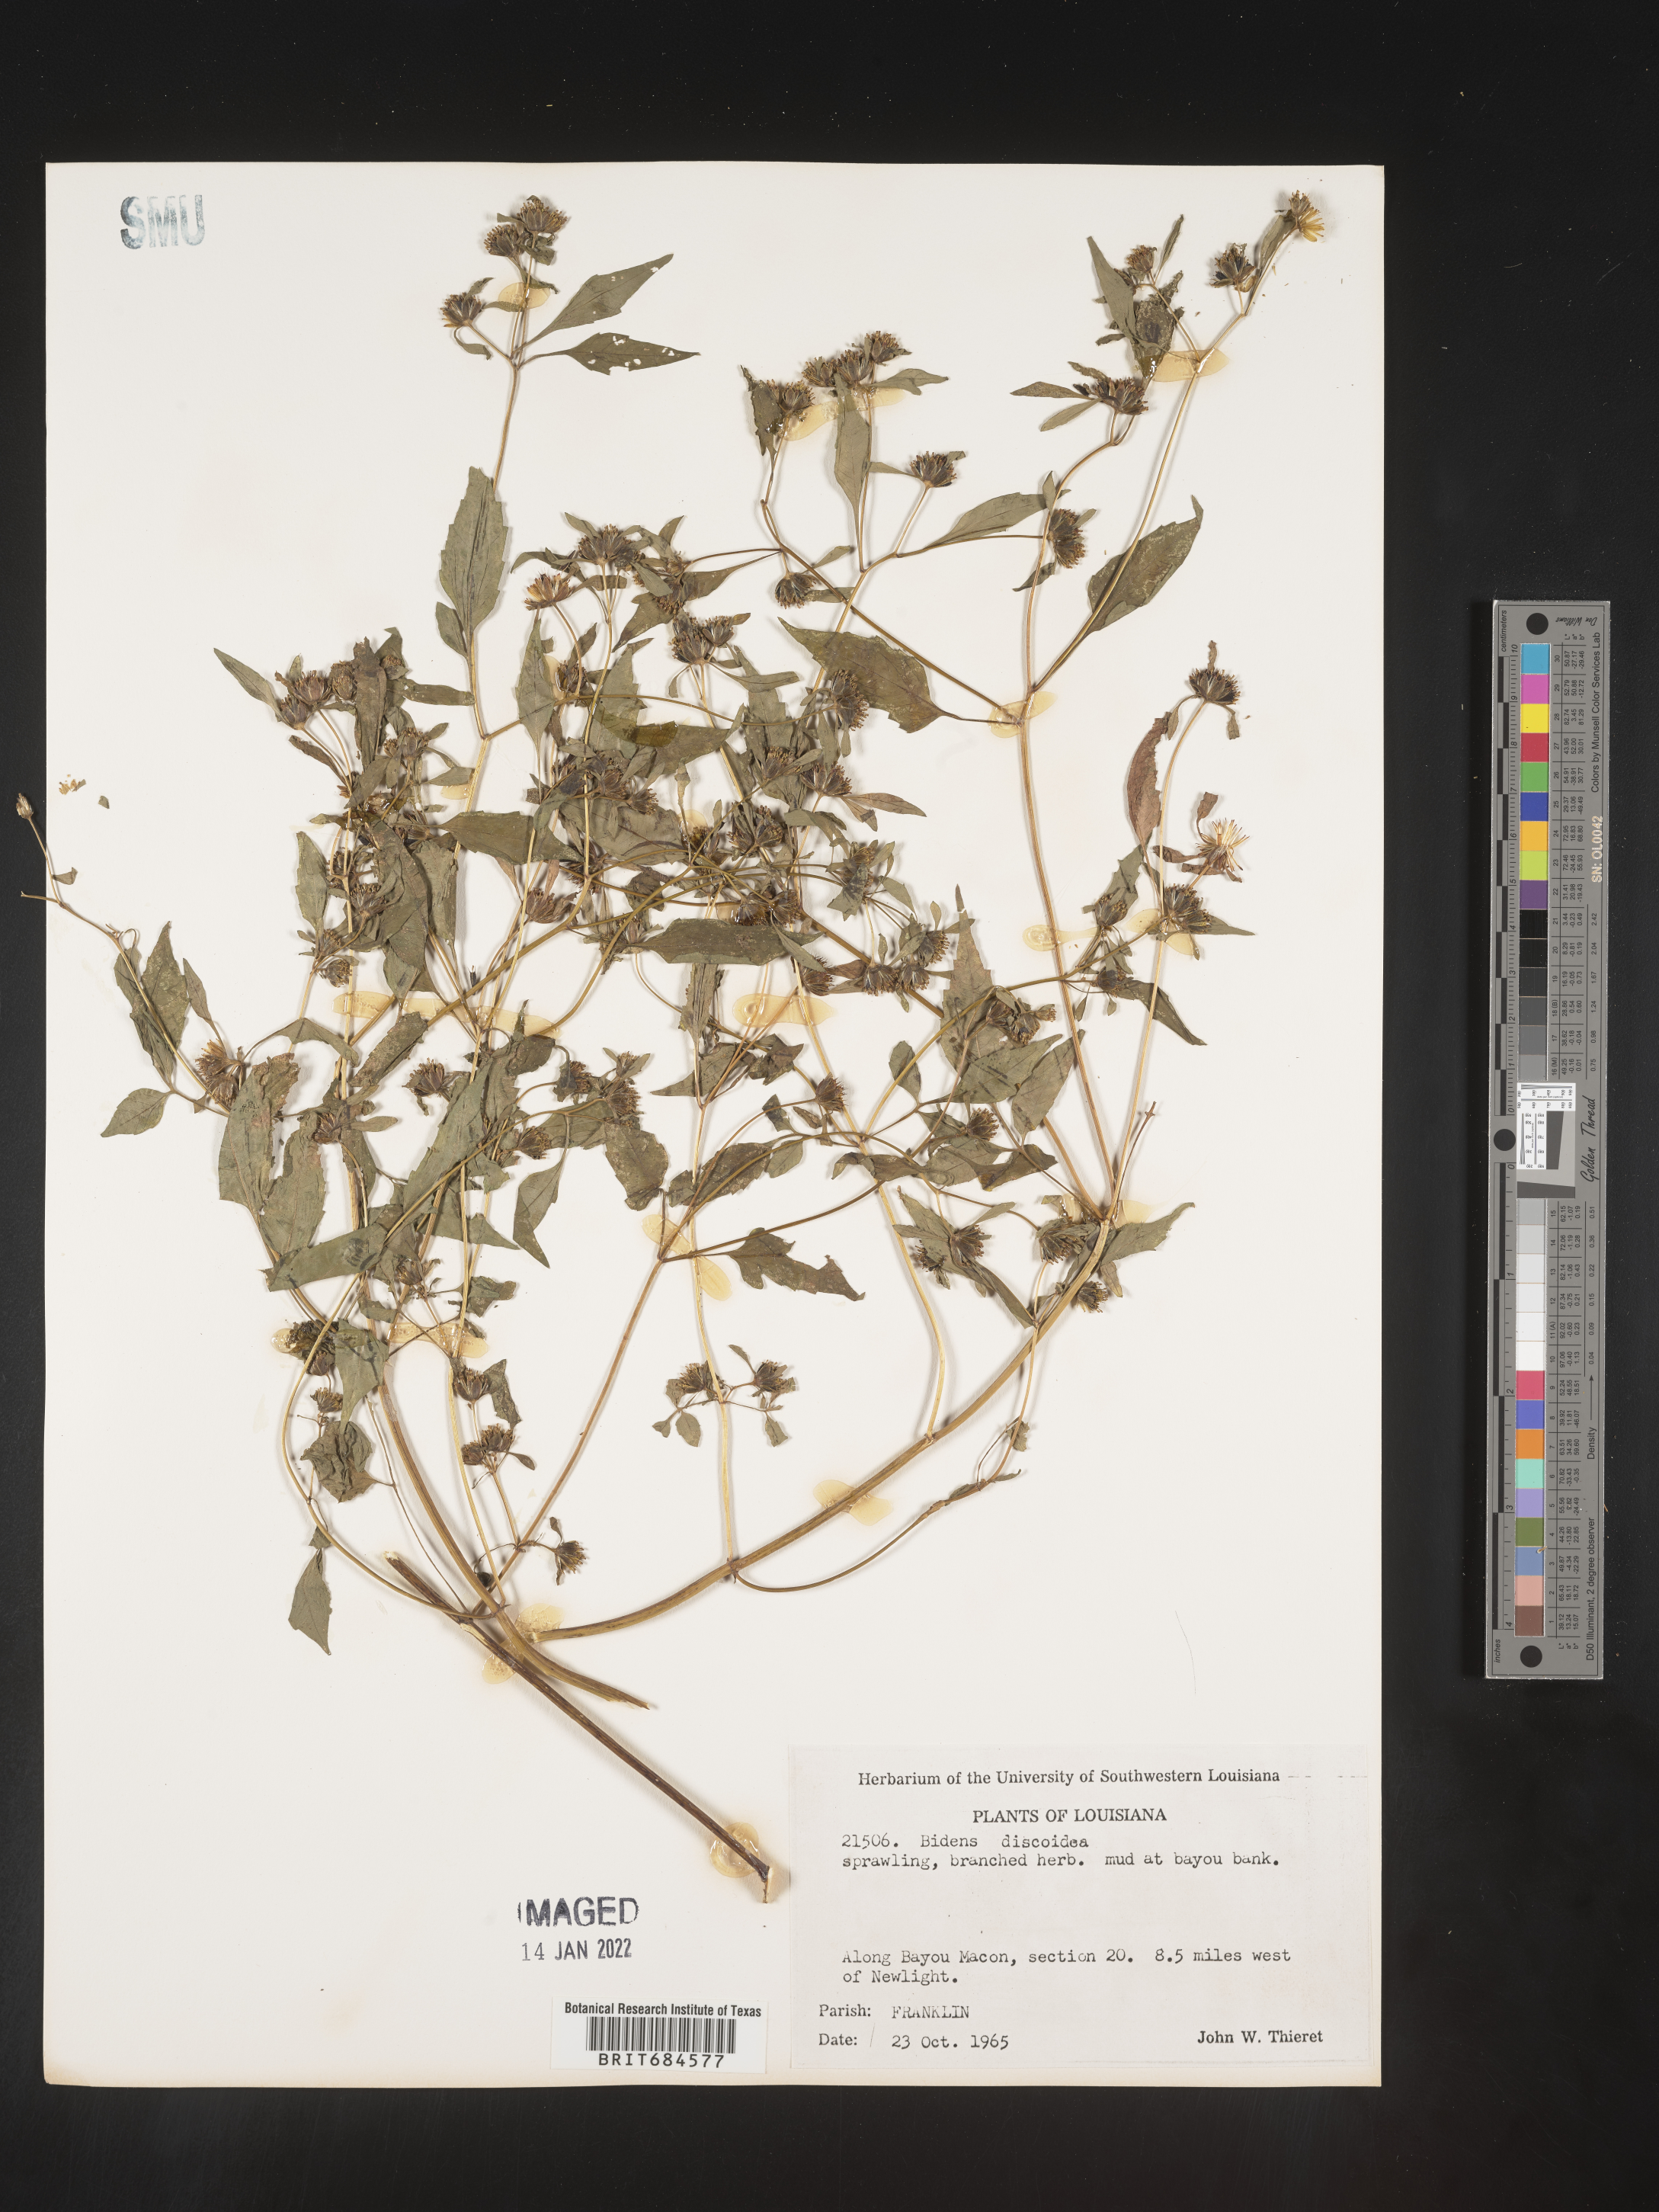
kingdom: Plantae
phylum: Tracheophyta
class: Magnoliopsida
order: Asterales
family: Asteraceae
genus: Bidens
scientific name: Bidens discoidea
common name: Discoide beggarticks
